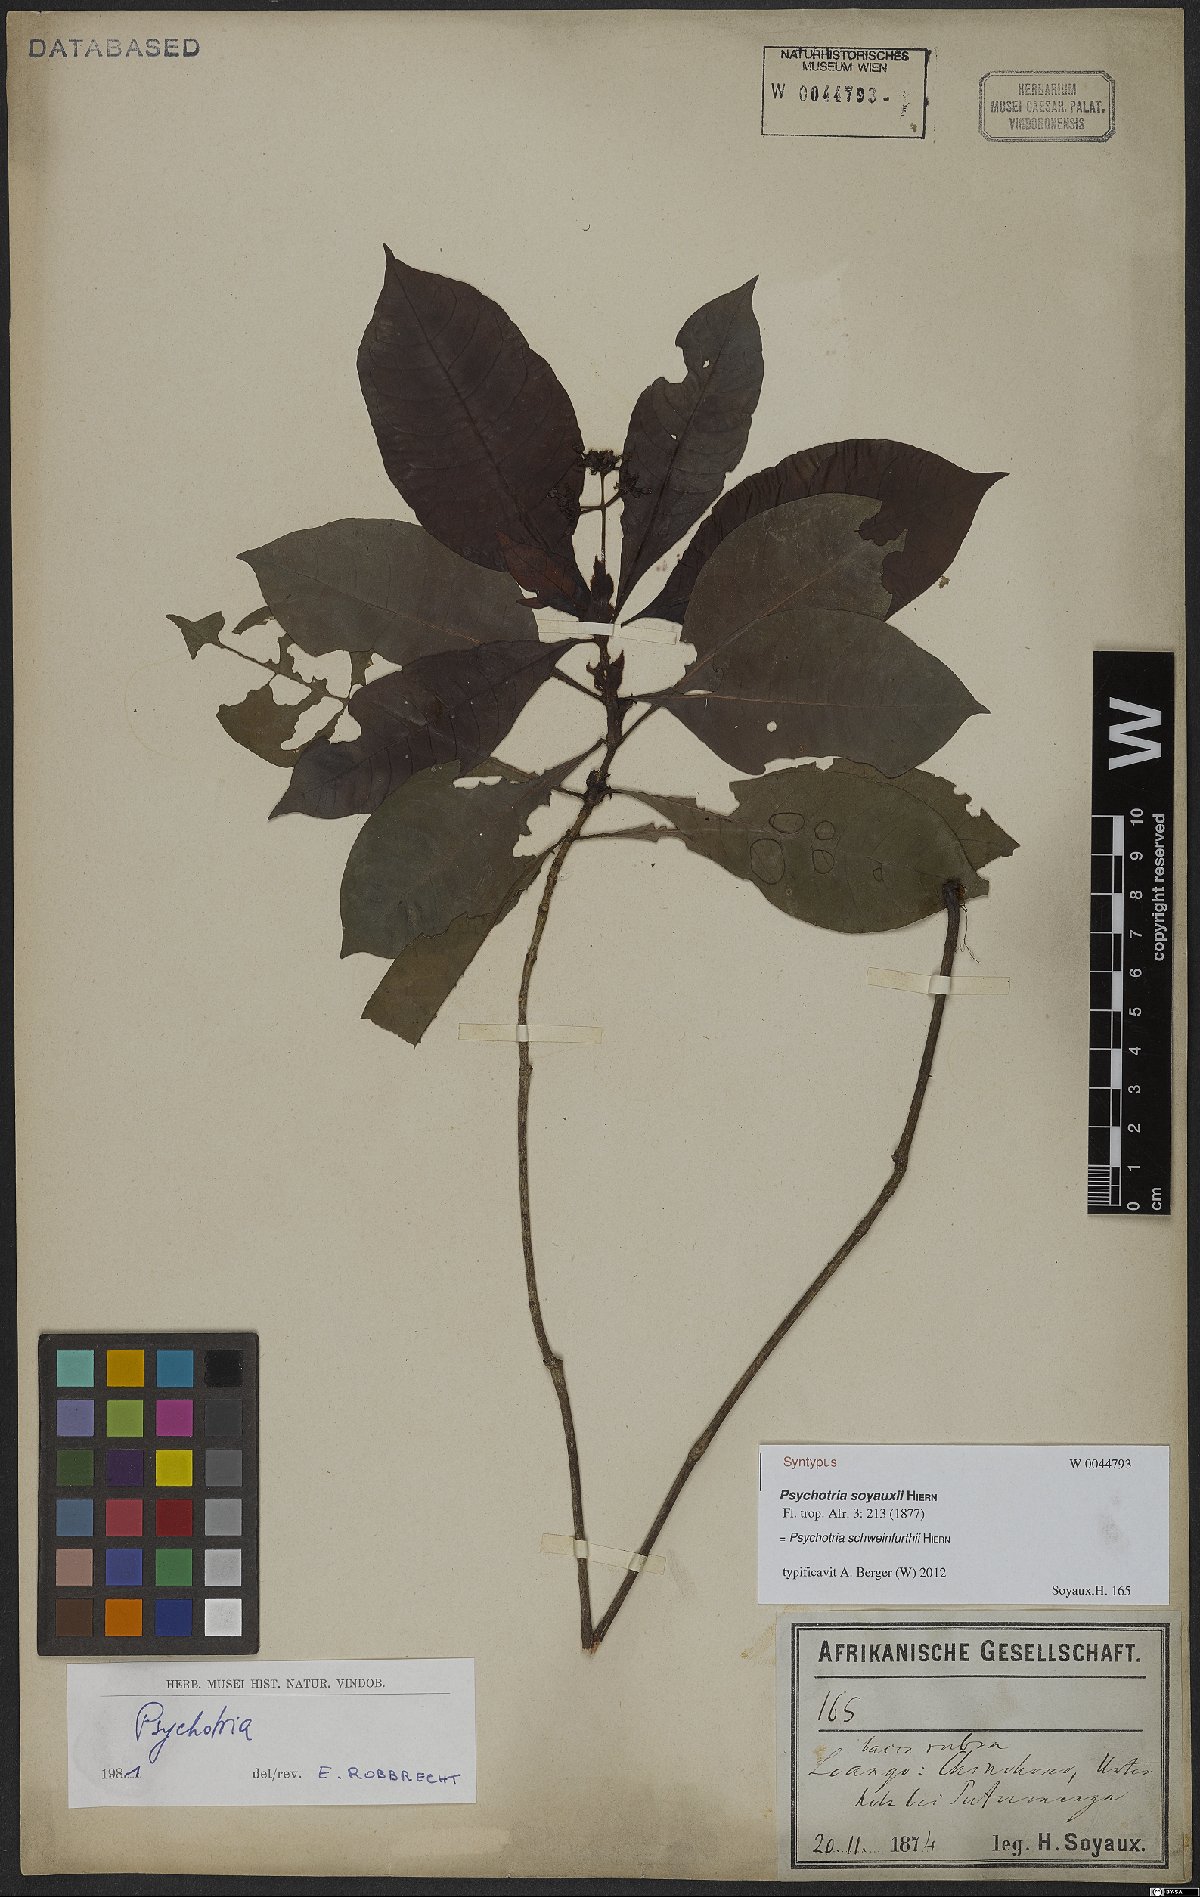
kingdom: Plantae
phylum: Tracheophyta
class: Magnoliopsida
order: Gentianales
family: Rubiaceae
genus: Psychotria
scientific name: Psychotria schweinfurthii
